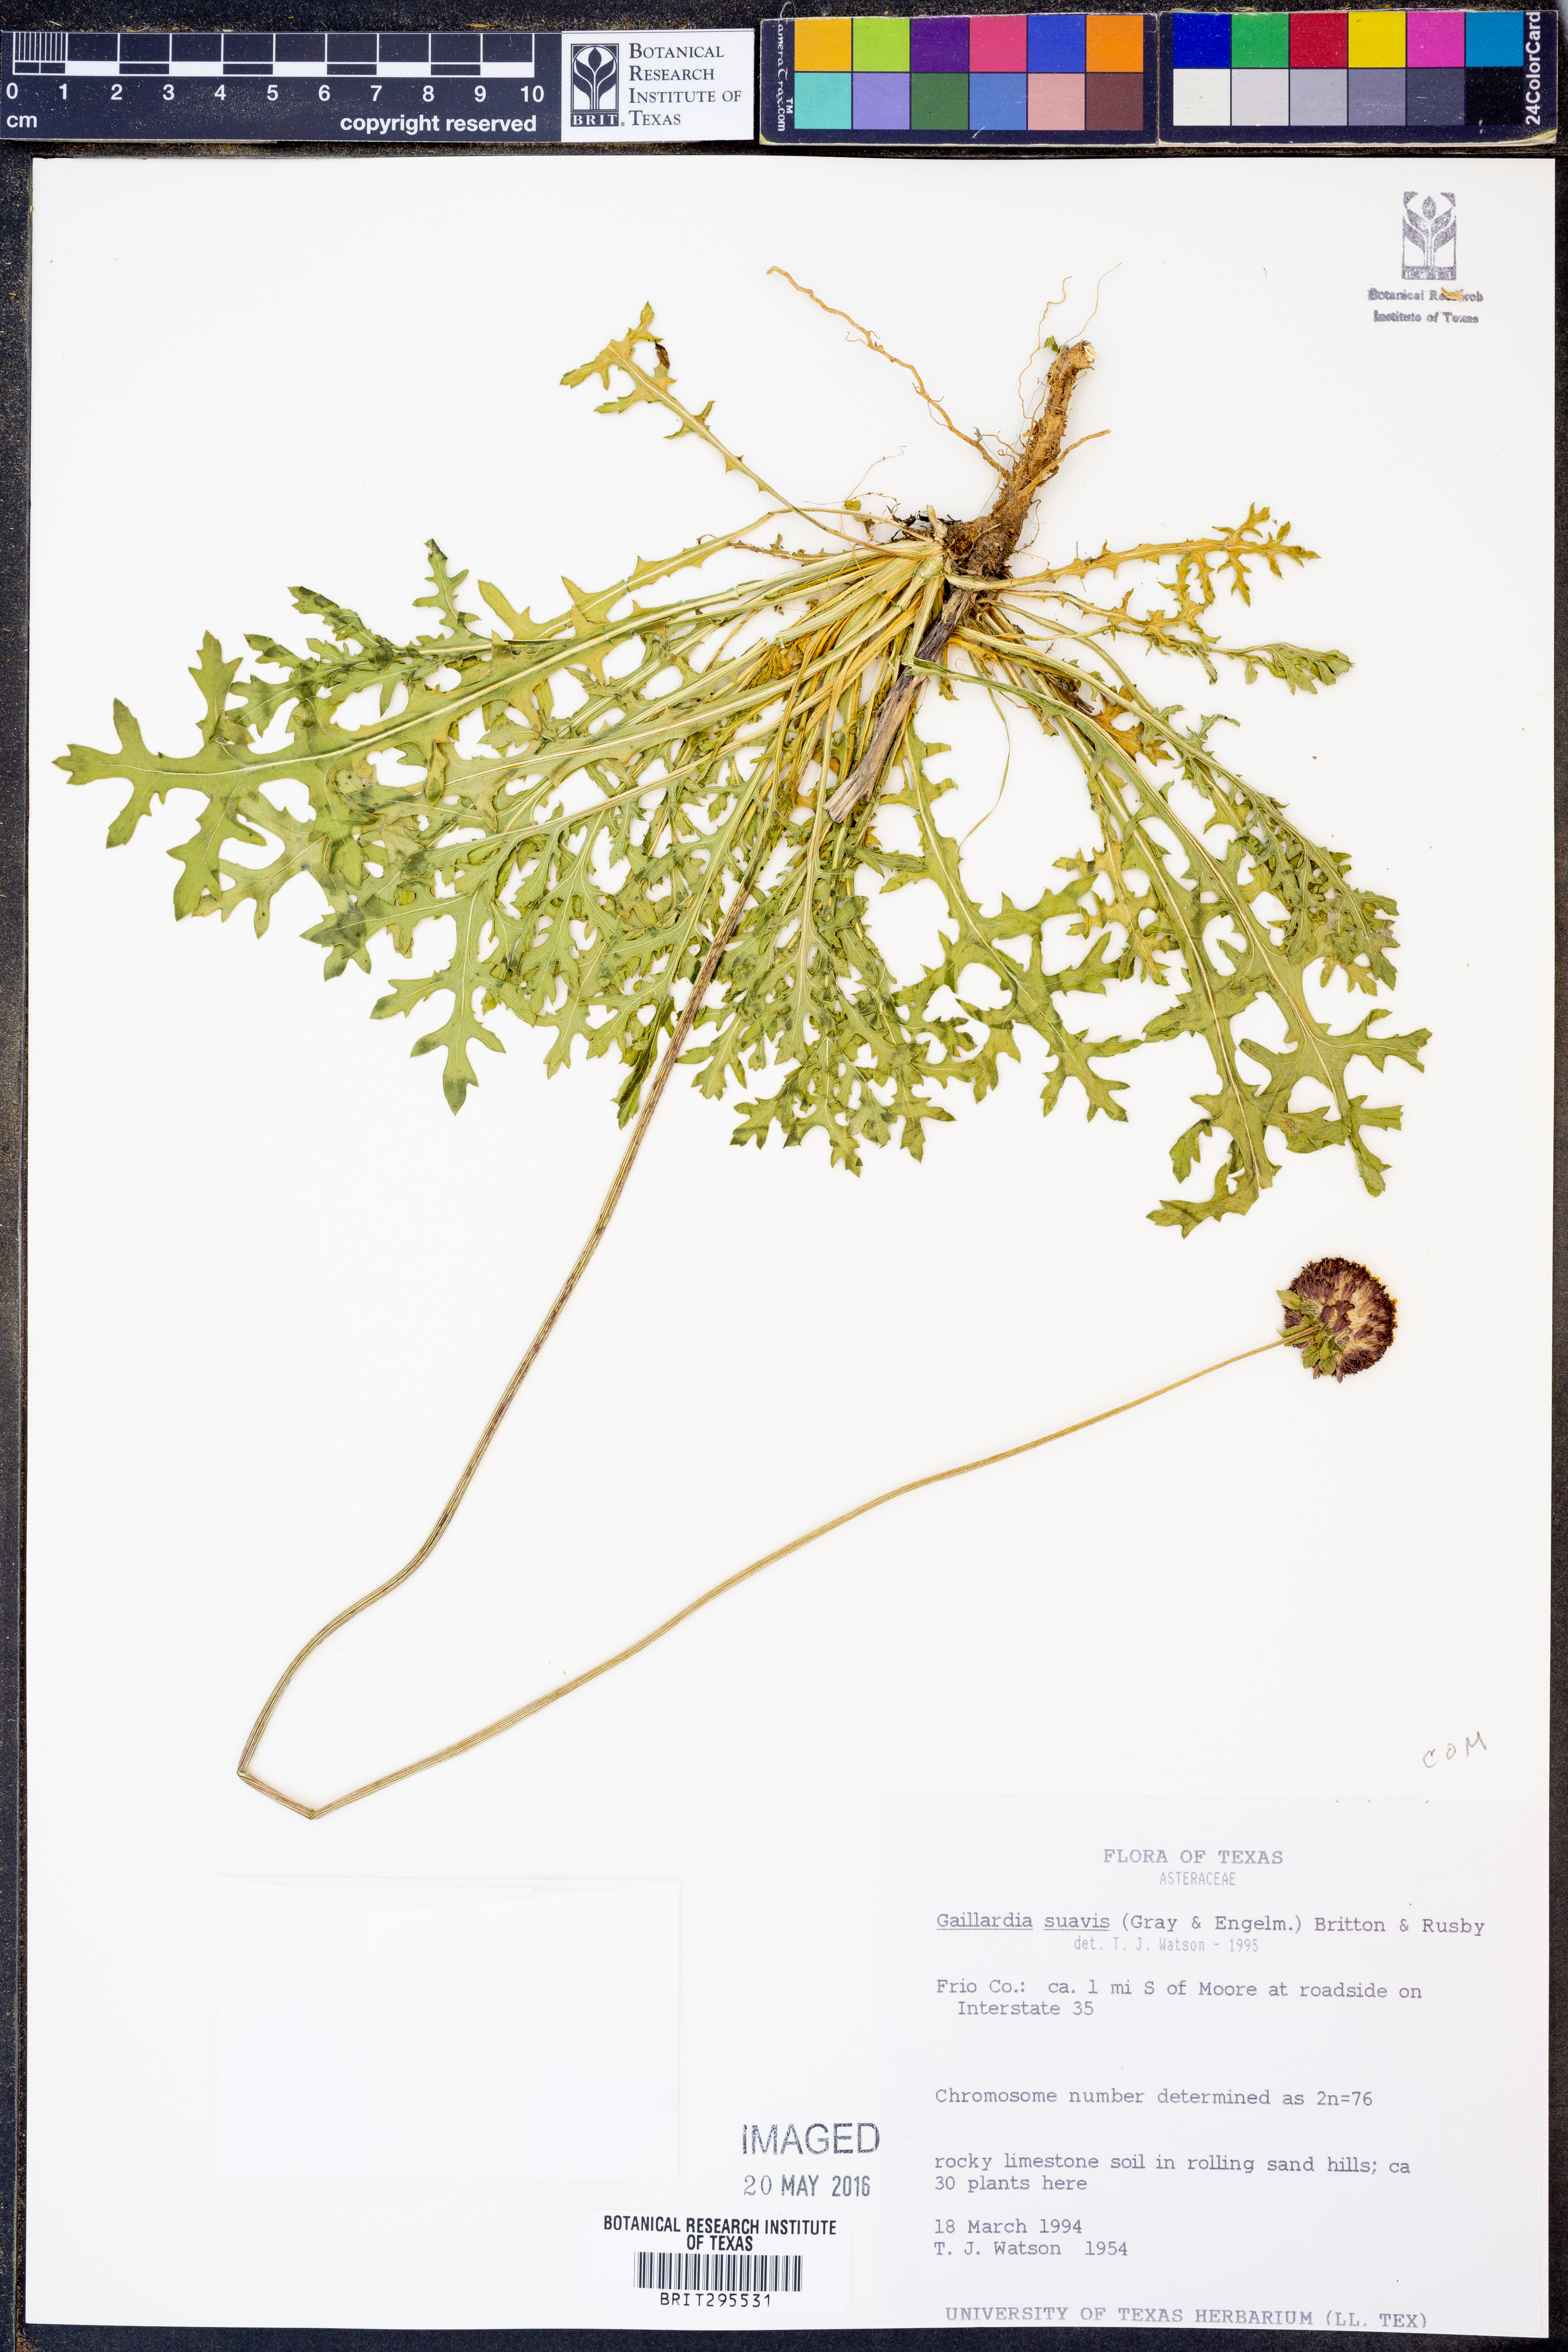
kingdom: Plantae
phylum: Tracheophyta
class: Magnoliopsida
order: Asterales
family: Asteraceae
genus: Gaillardia
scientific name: Gaillardia suavis
